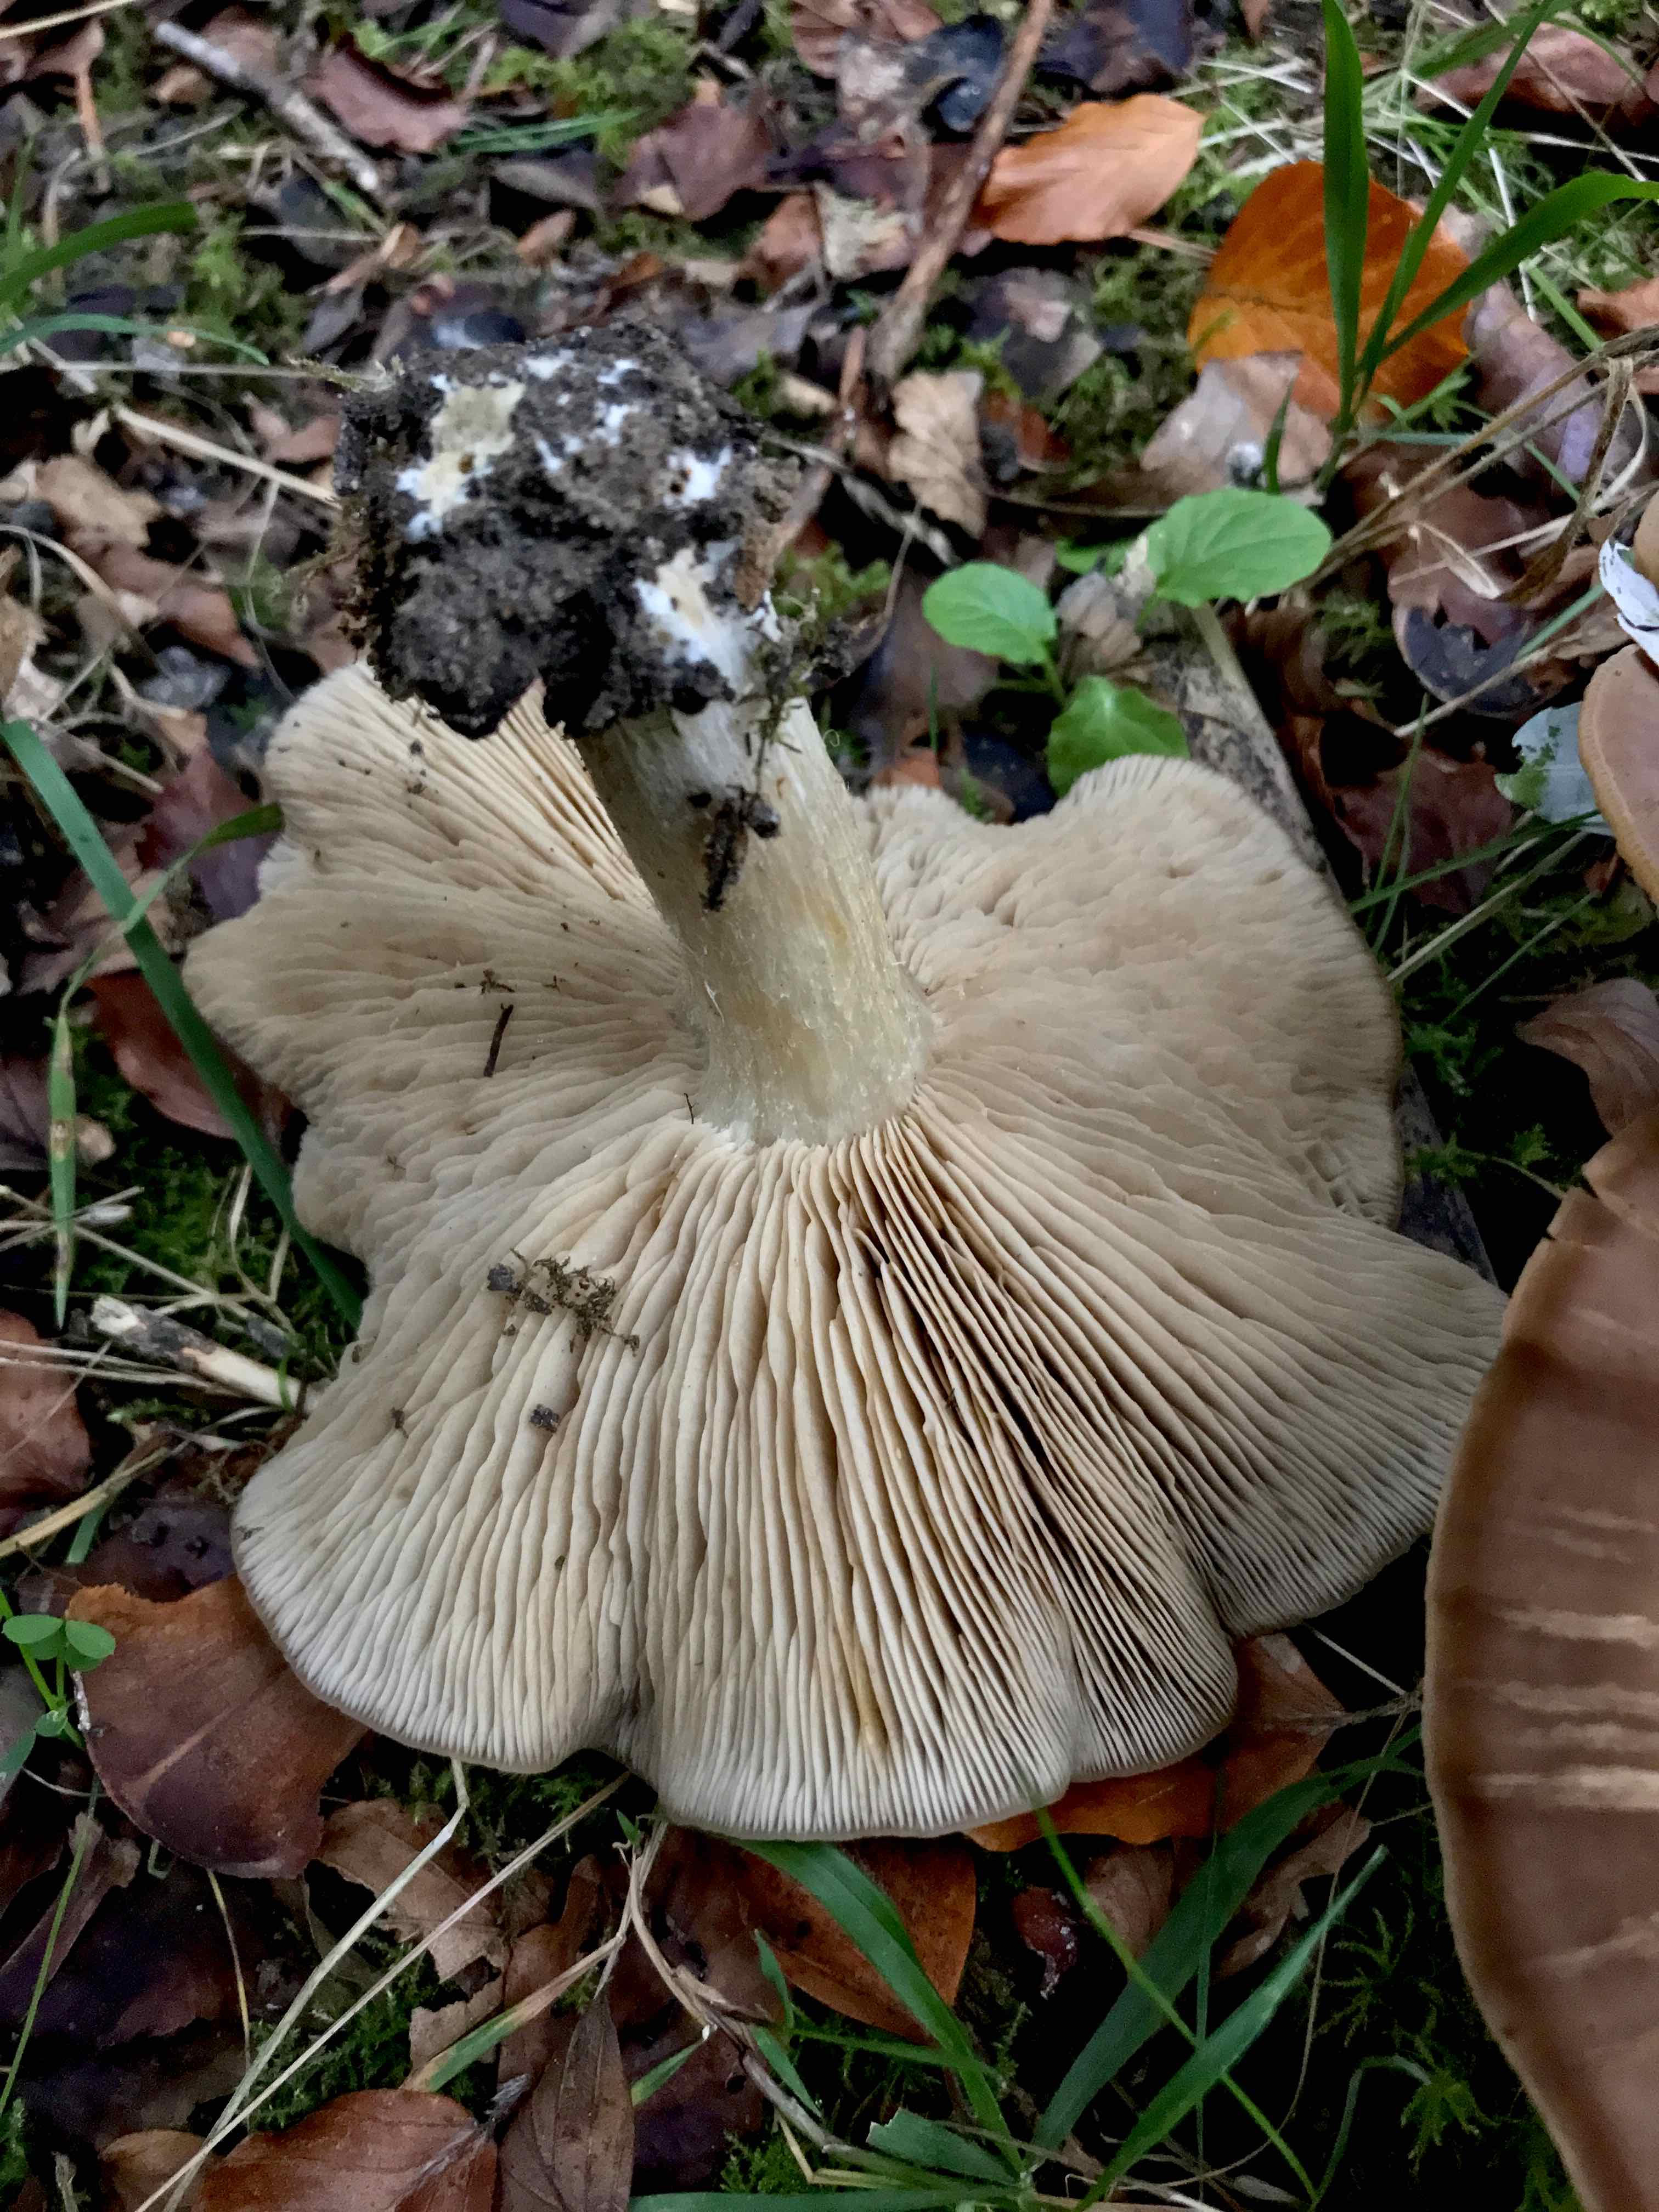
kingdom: Fungi
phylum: Basidiomycota
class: Agaricomycetes
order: Agaricales
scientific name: Agaricales
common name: champignonordenen
